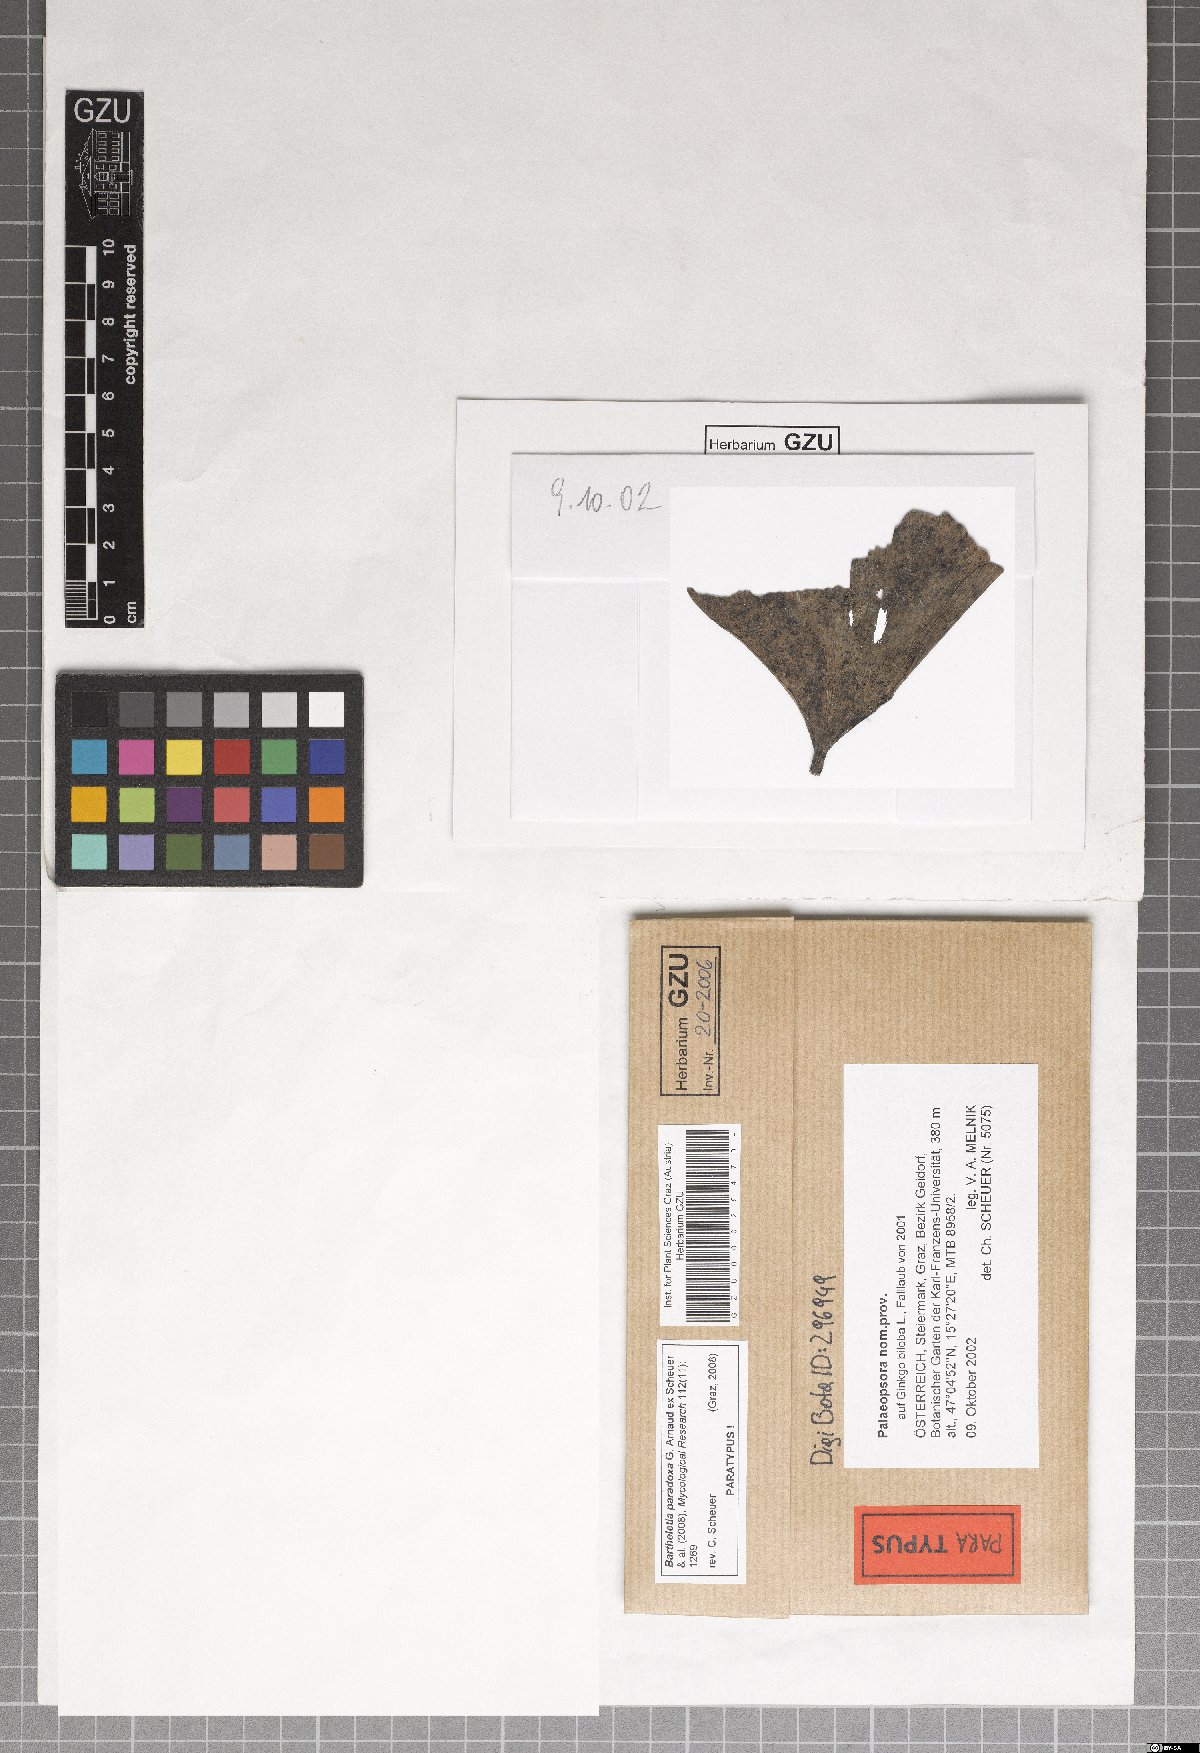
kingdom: Fungi
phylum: Basidiomycota
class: Wallemiomycetes
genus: Bartheletia
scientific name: Bartheletia paradoxa
